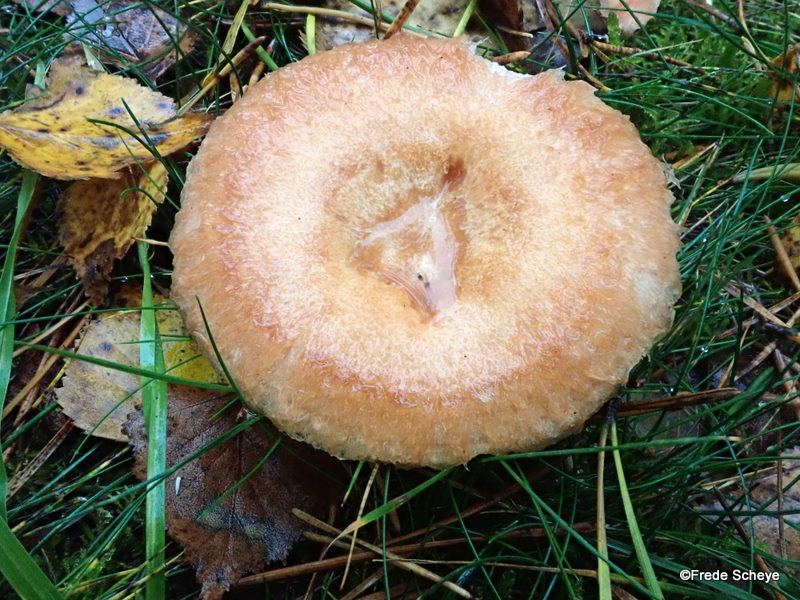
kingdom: Fungi
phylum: Basidiomycota
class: Agaricomycetes
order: Russulales
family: Russulaceae
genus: Lactarius
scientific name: Lactarius torminosus
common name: skægget mælkehat
